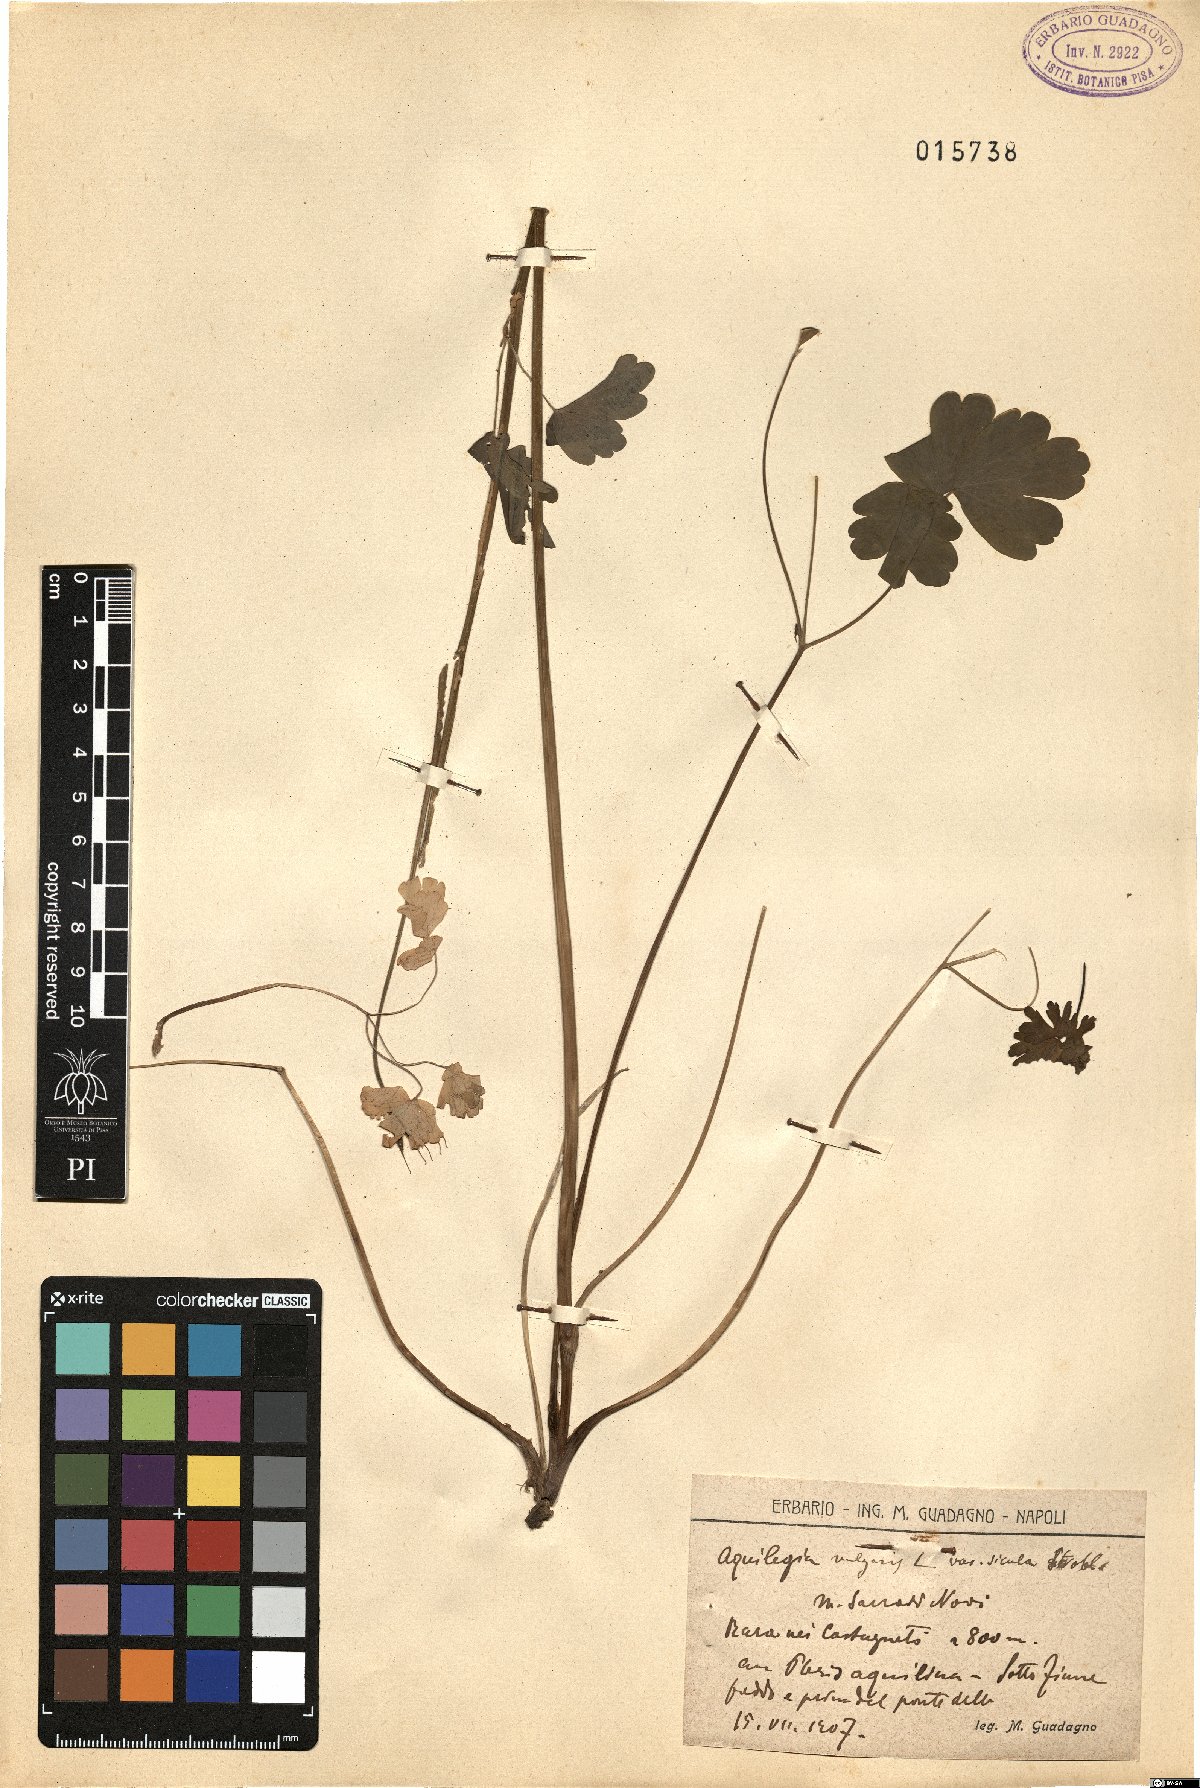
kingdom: Plantae
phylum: Tracheophyta
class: Magnoliopsida
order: Ranunculales
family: Ranunculaceae
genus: Aquilegia
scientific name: Aquilegia dumeticola
